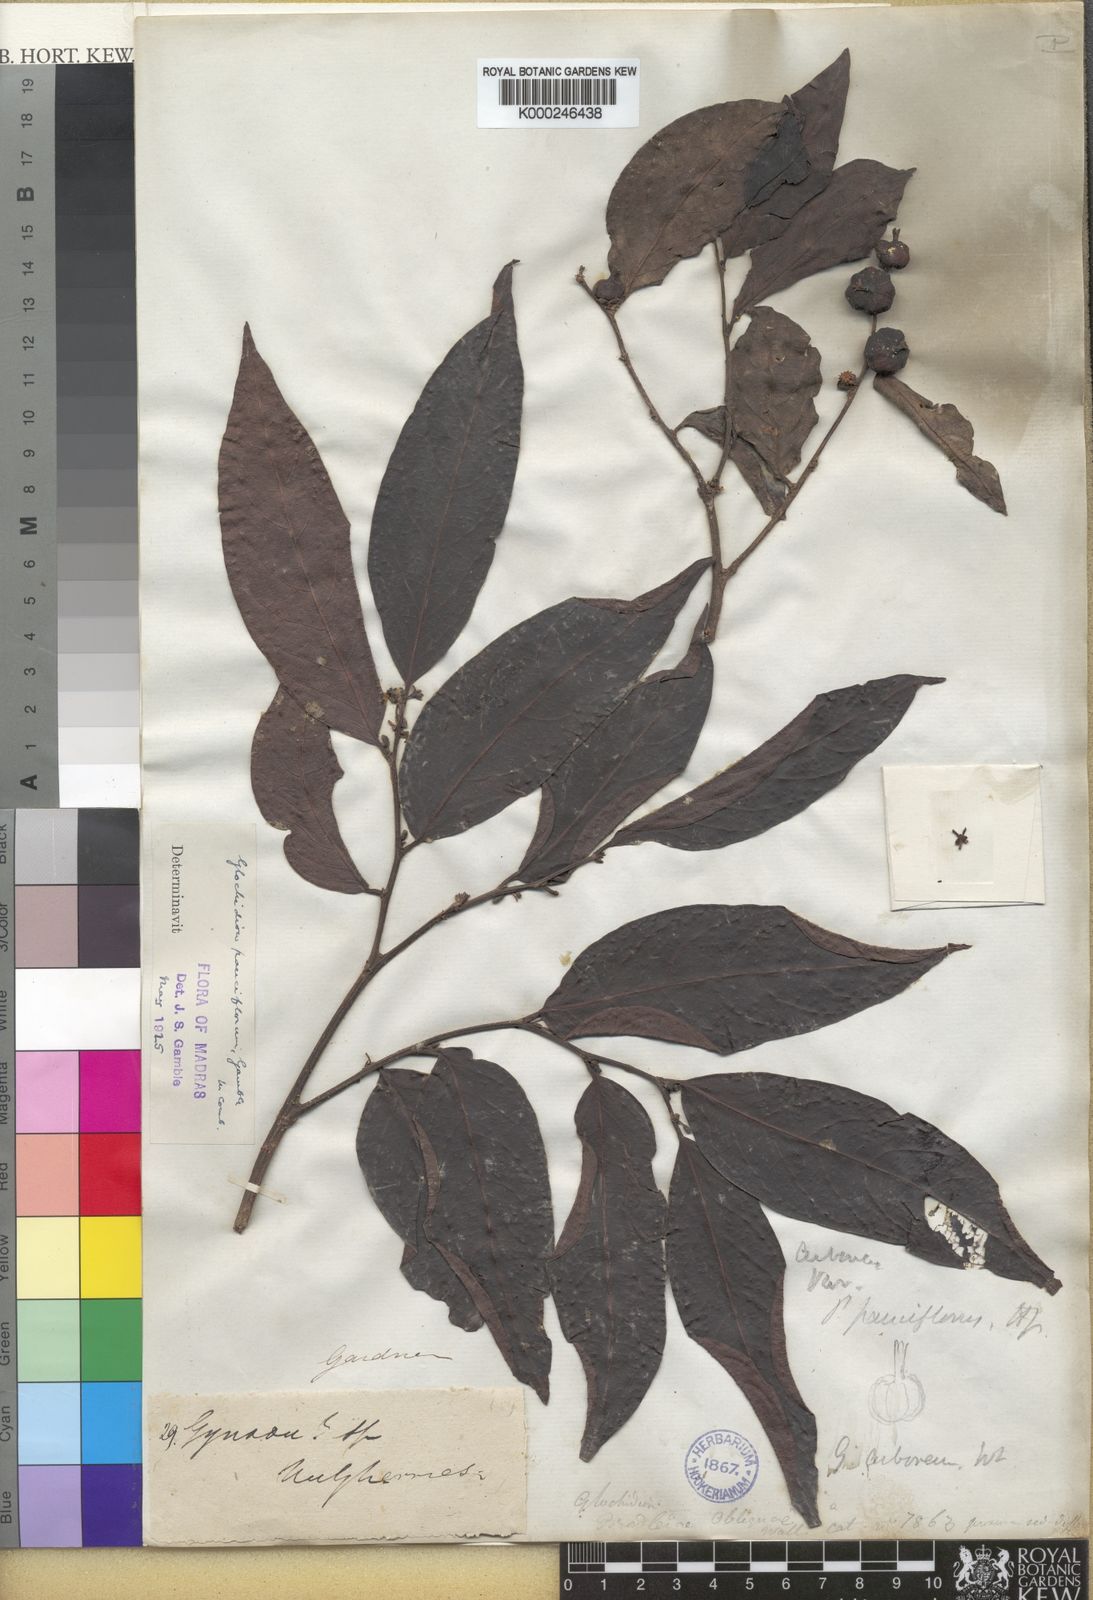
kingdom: Plantae
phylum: Tracheophyta
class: Magnoliopsida
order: Malpighiales
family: Phyllanthaceae
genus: Glochidion
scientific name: Glochidion candolleanum
